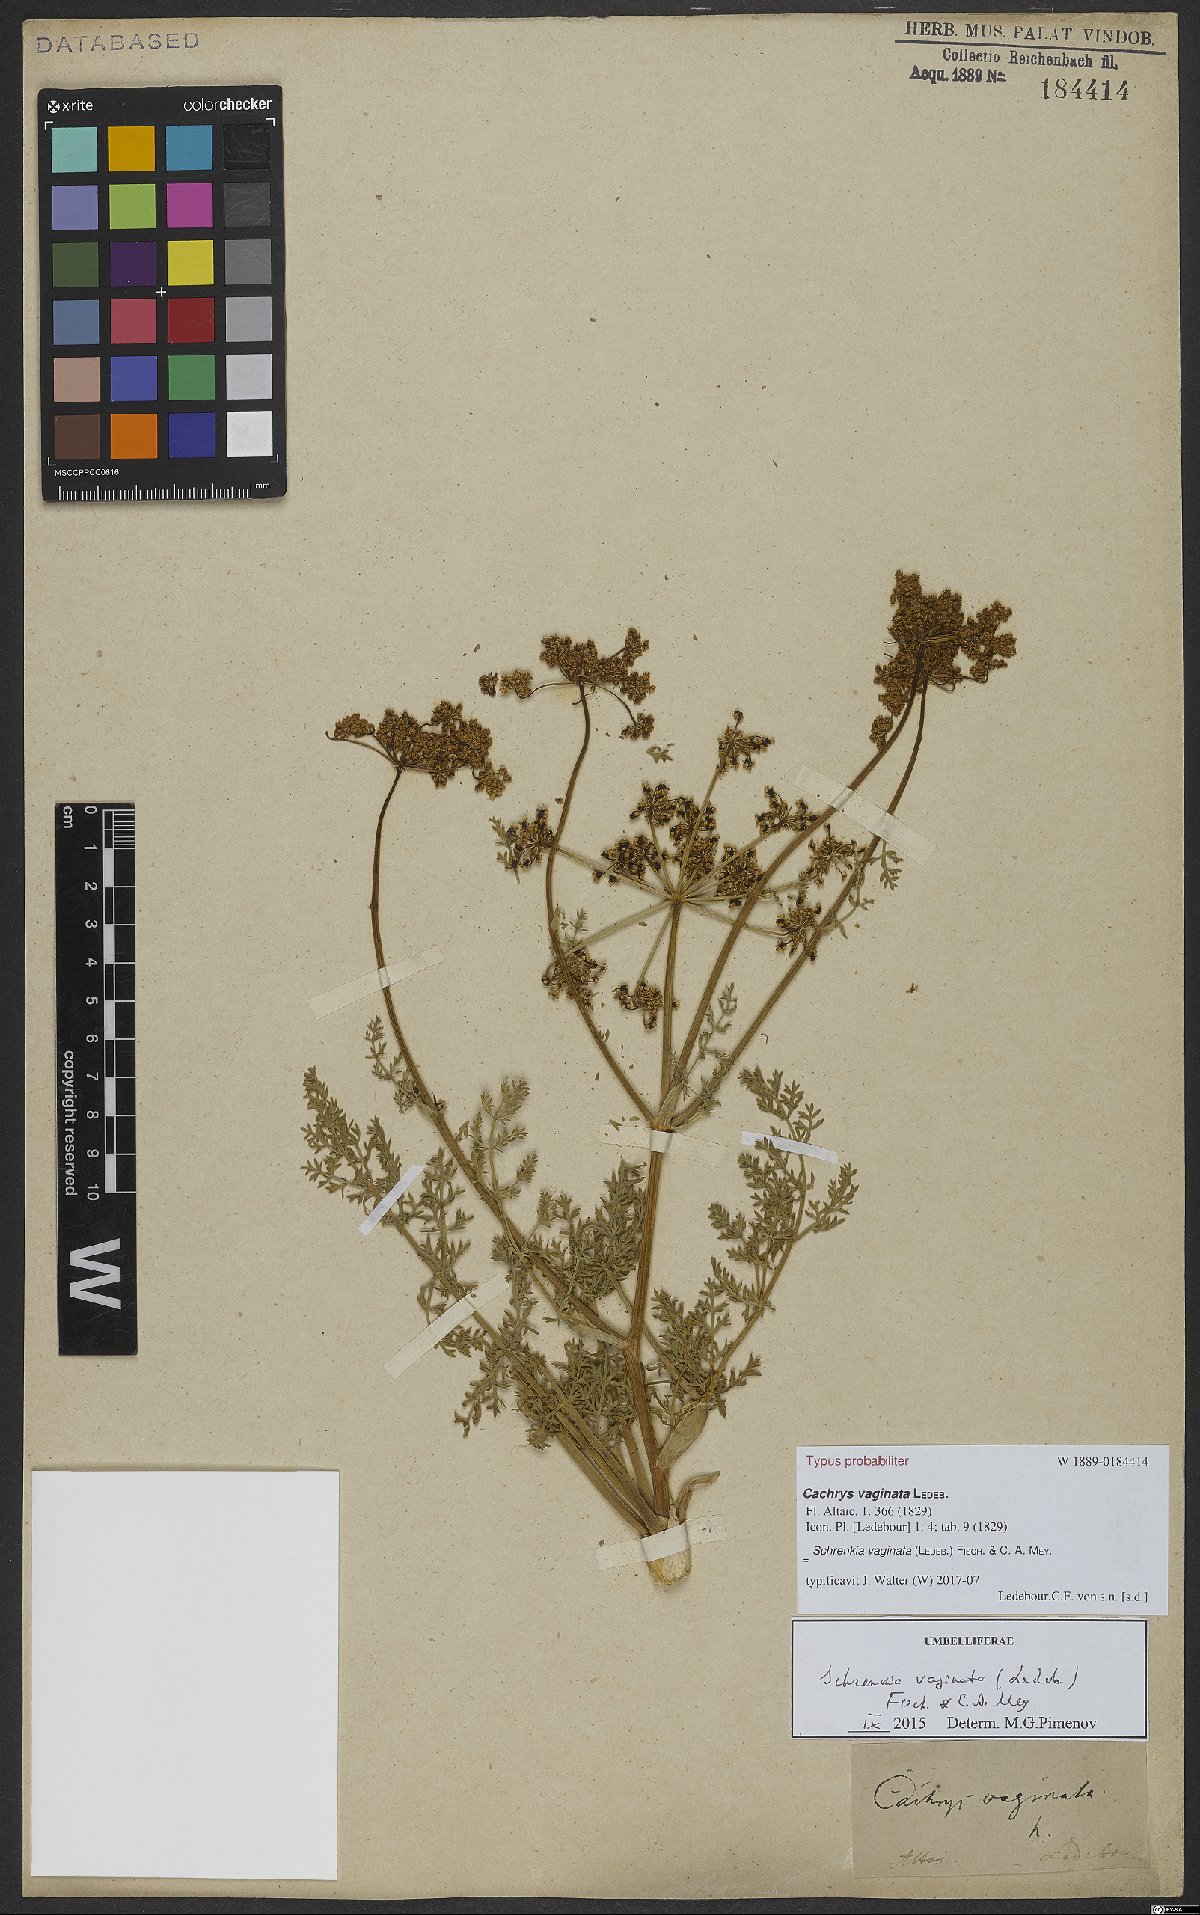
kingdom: Plantae
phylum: Tracheophyta
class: Magnoliopsida
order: Apiales
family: Apiaceae
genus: Schrenkia
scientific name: Schrenkia vaginata
